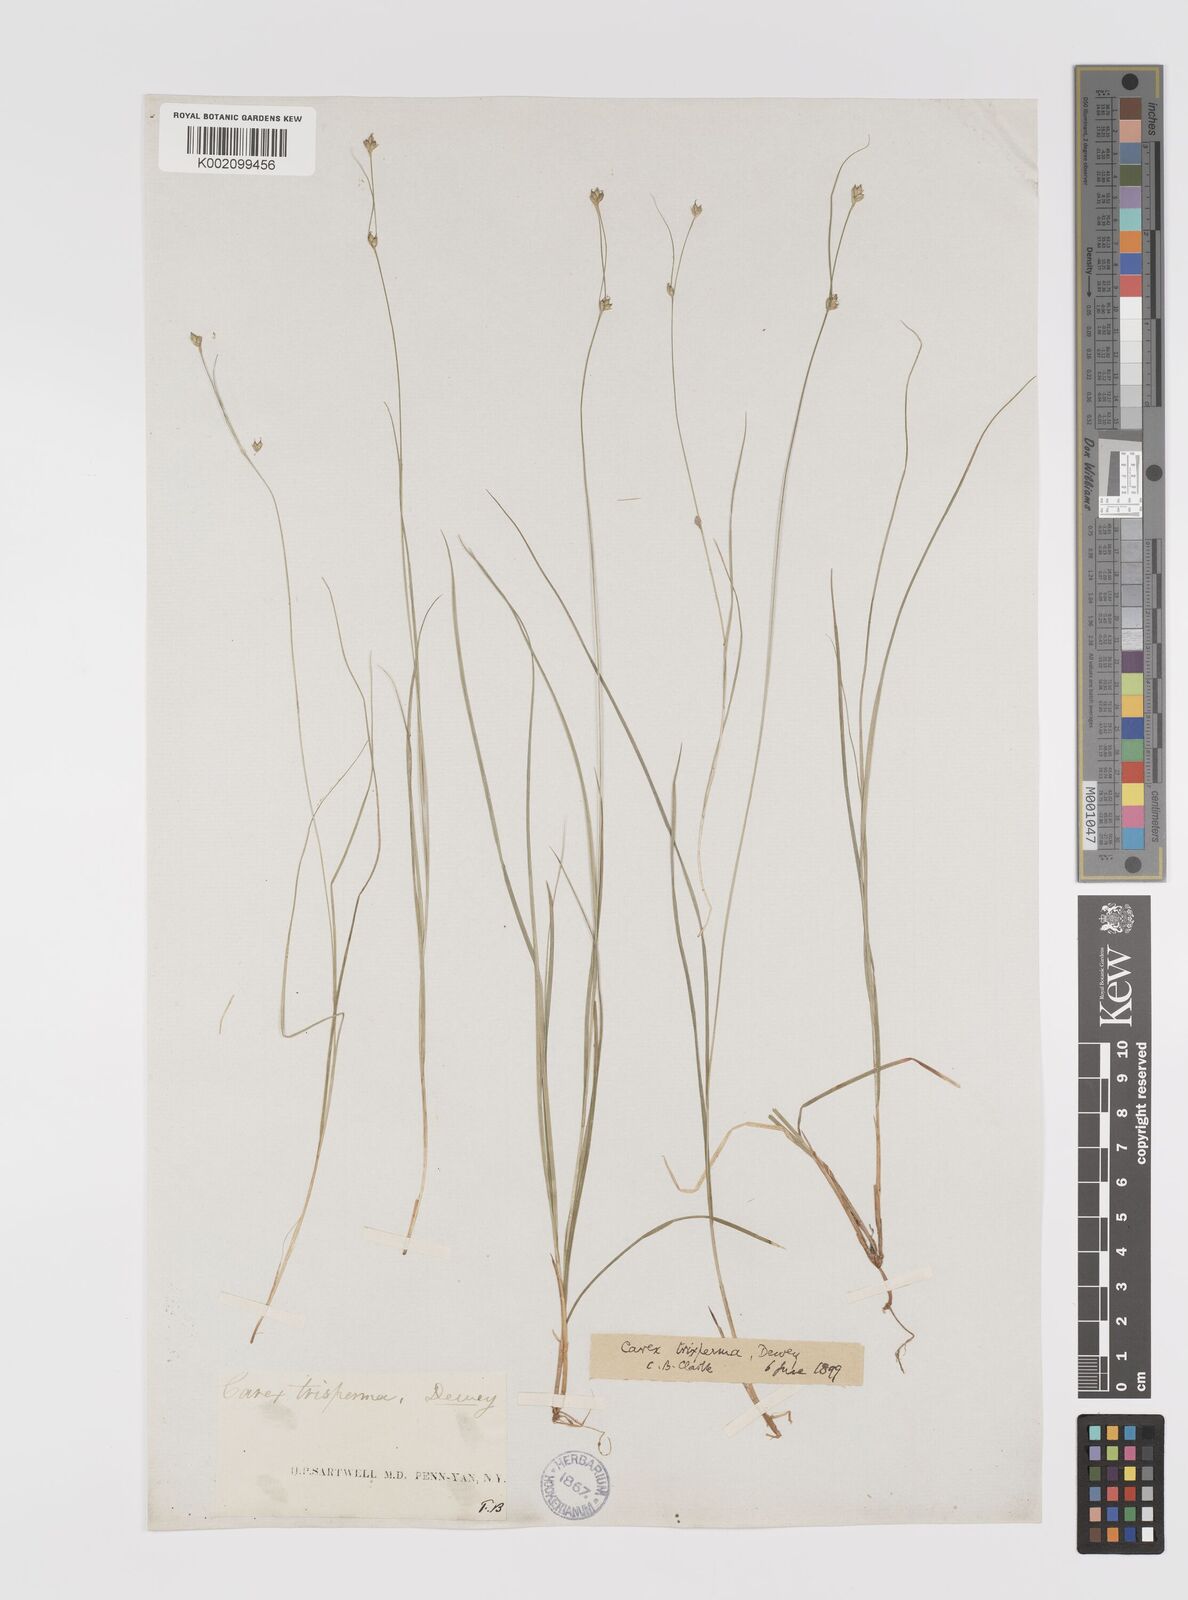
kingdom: Plantae
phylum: Tracheophyta
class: Liliopsida
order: Poales
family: Cyperaceae
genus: Carex
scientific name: Carex trisperma
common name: Three-seeded sedge
